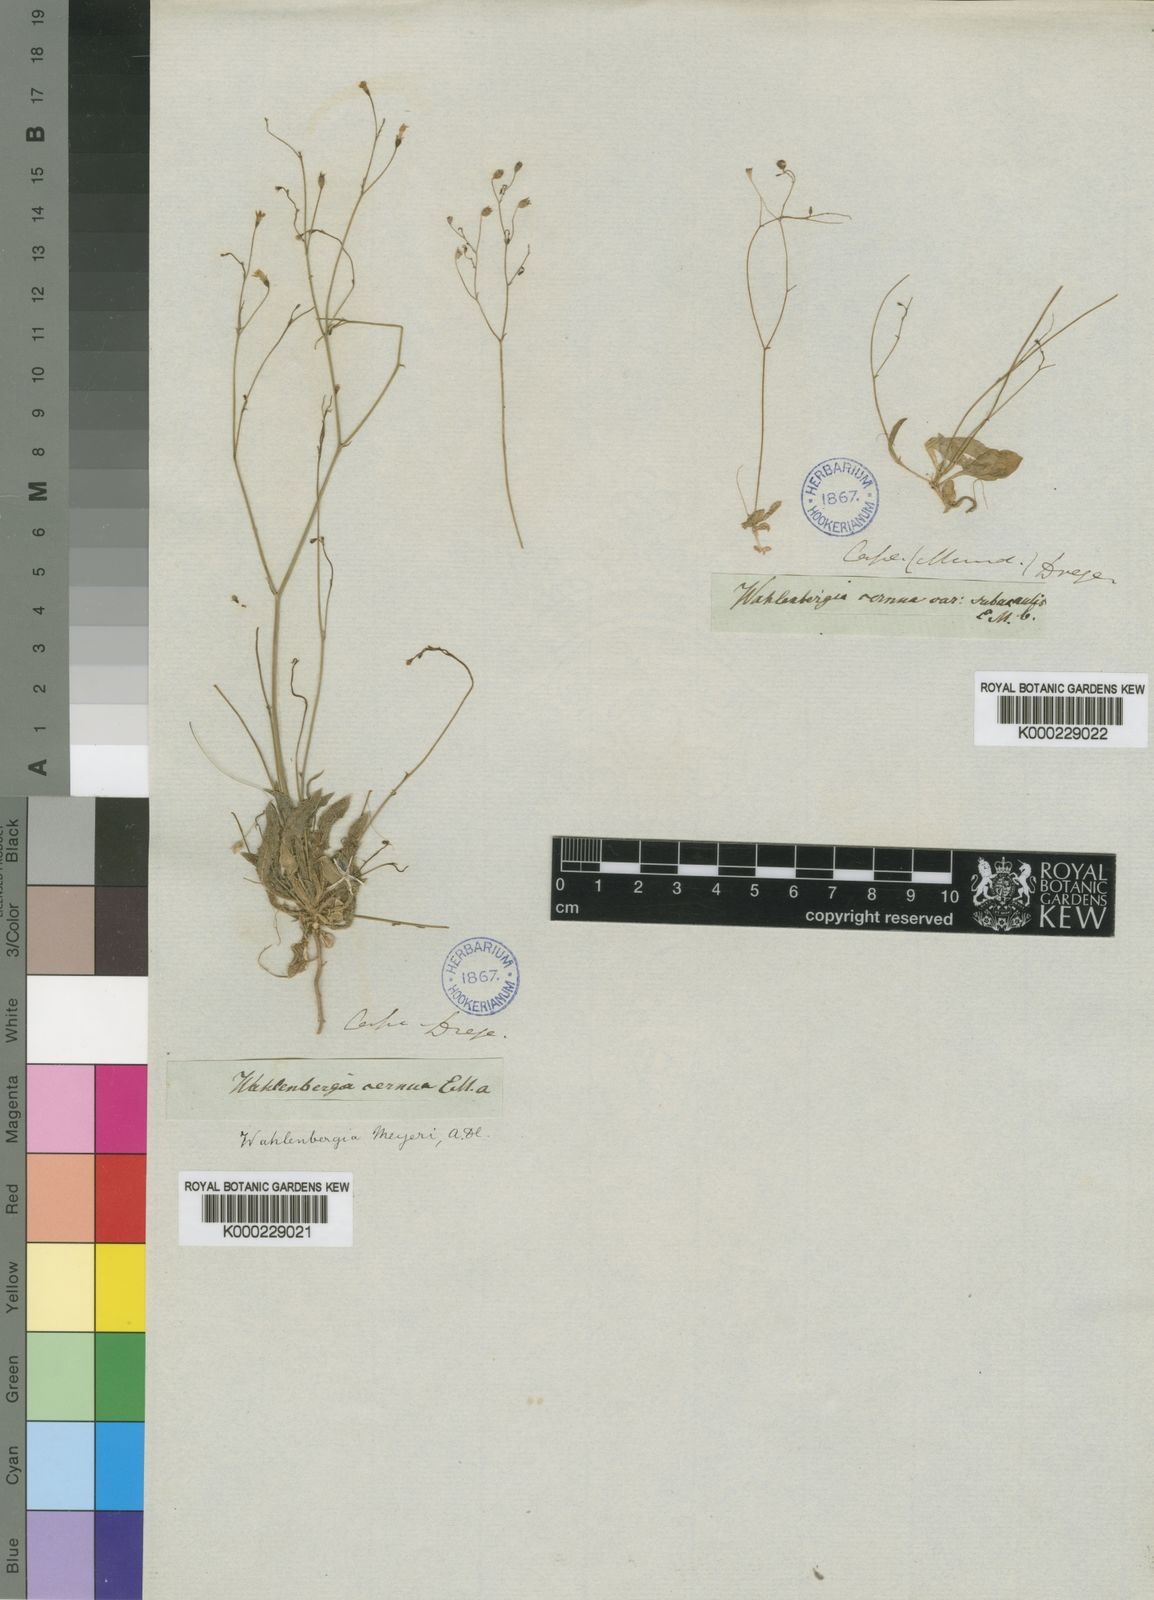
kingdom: Plantae
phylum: Tracheophyta
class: Magnoliopsida
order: Asterales
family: Campanulaceae
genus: Wahlenbergia
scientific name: Wahlenbergia meyeri
